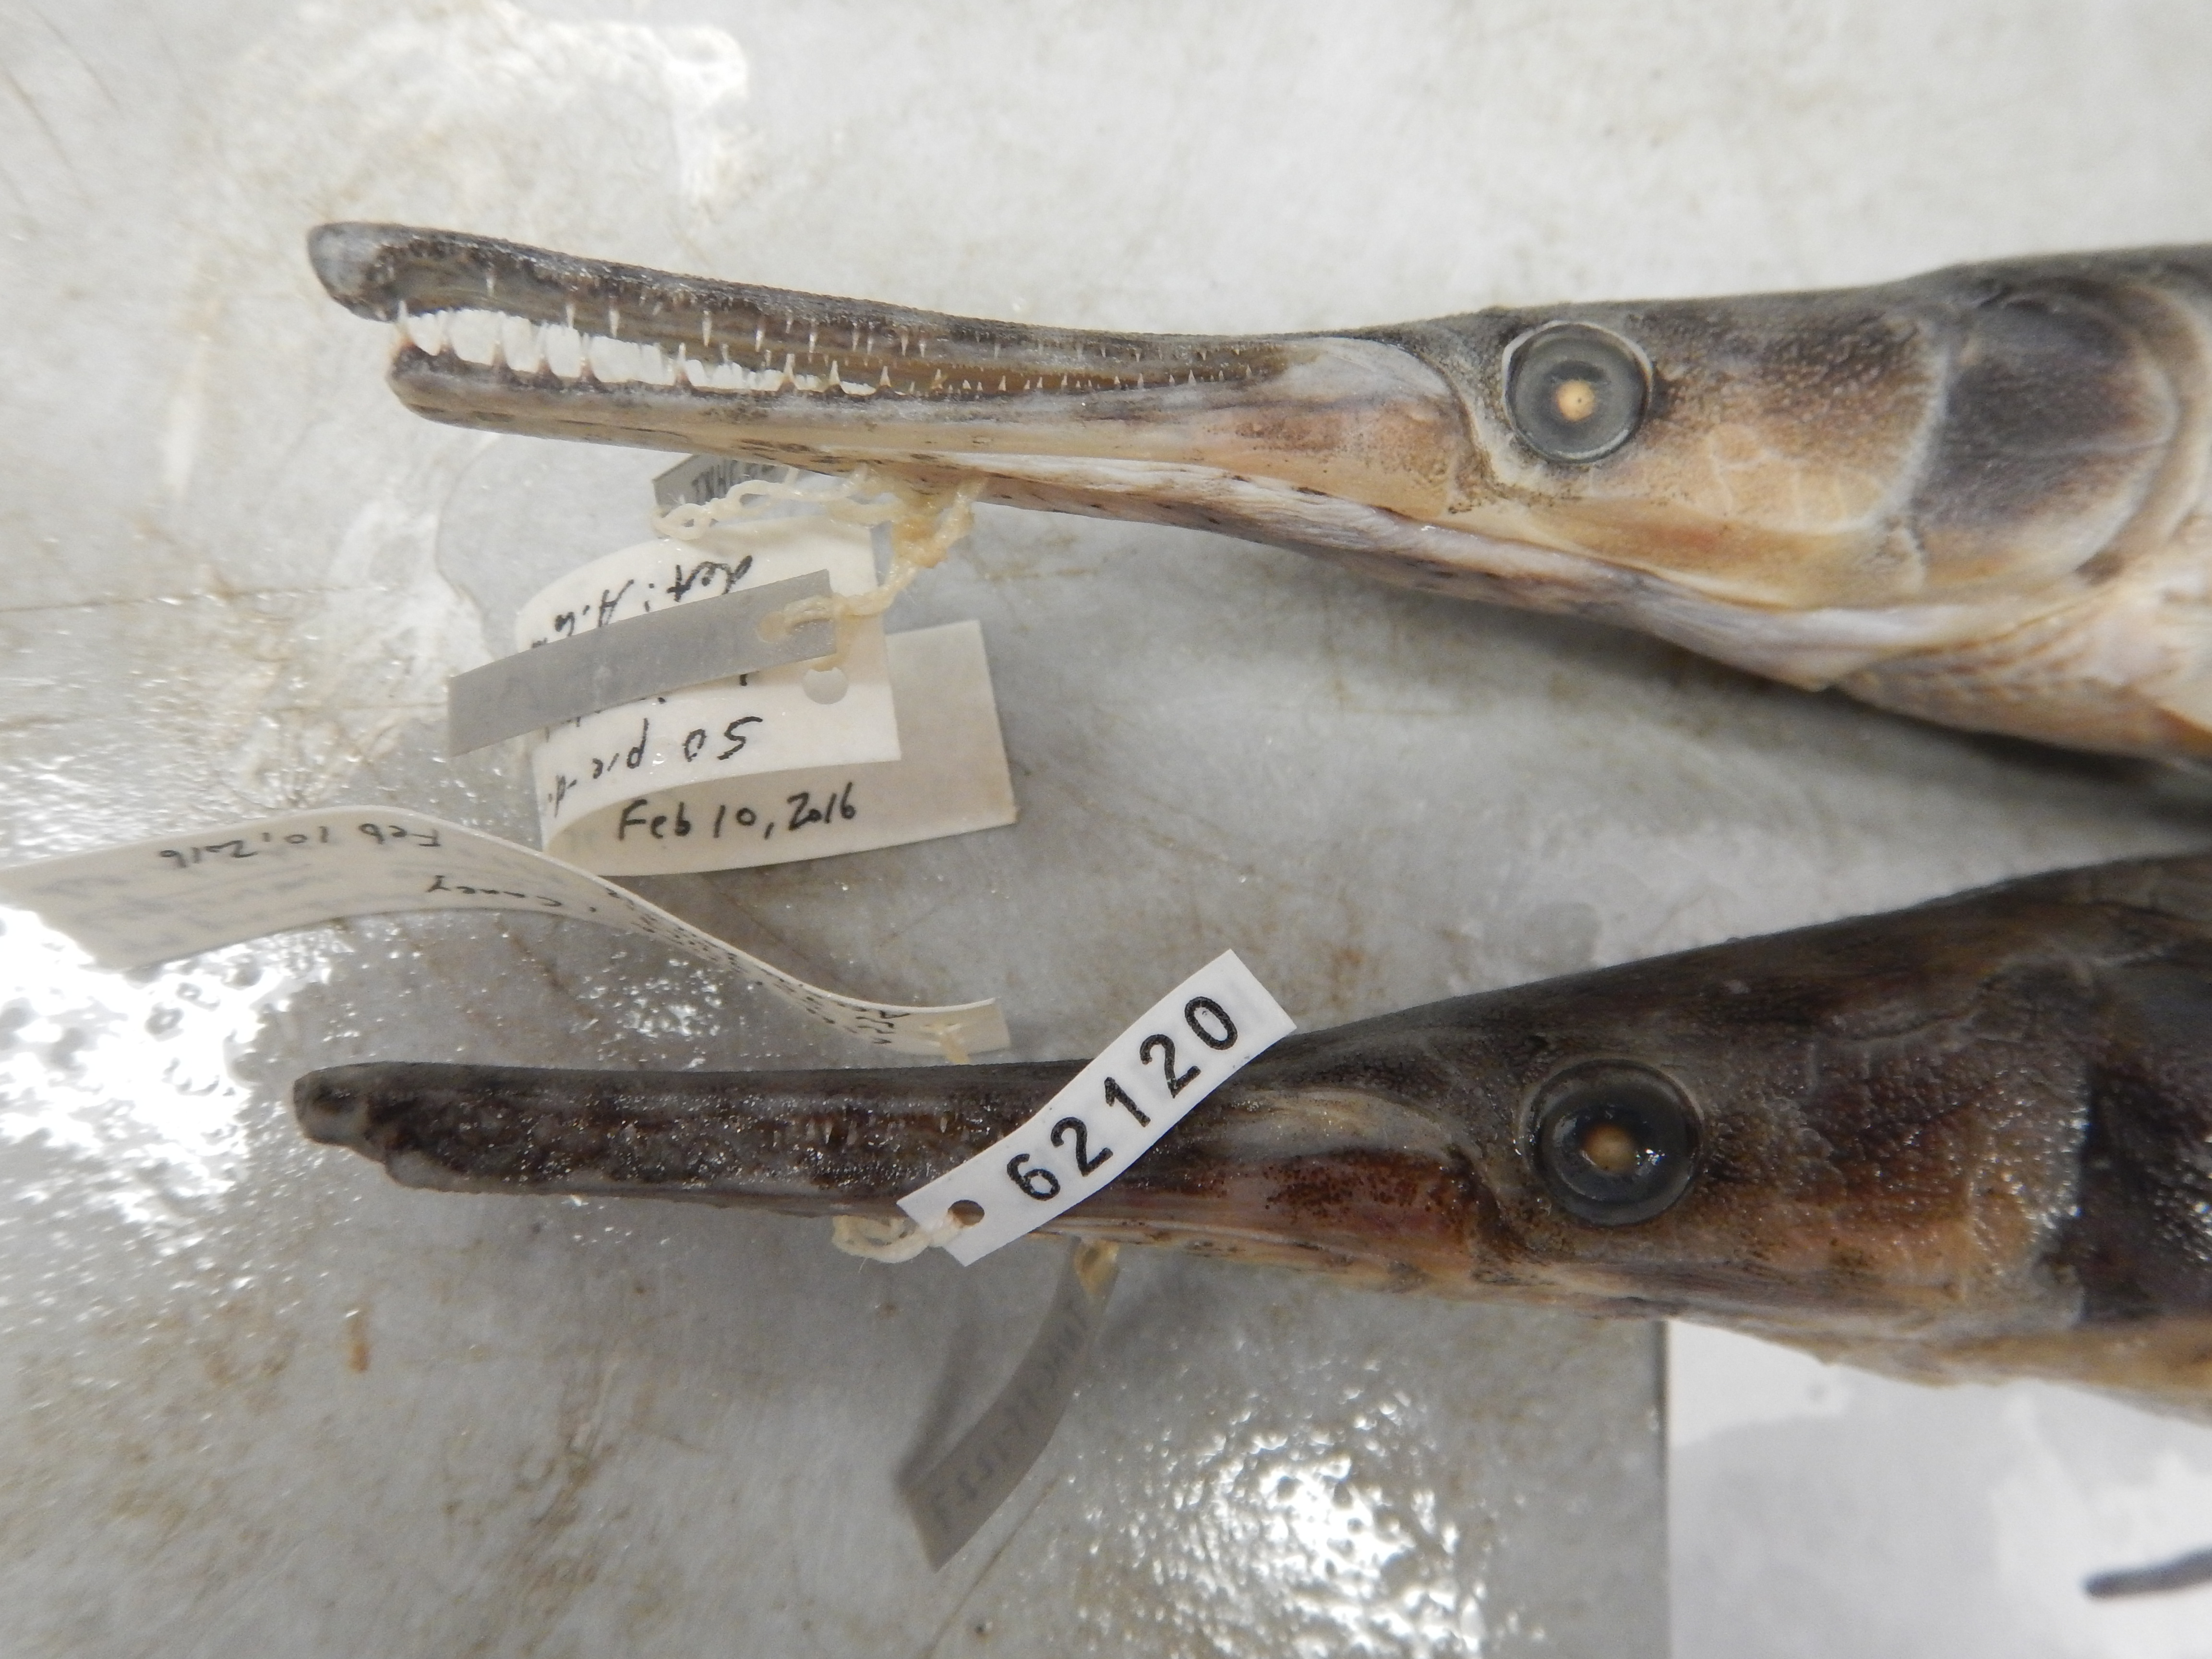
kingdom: Animalia
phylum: Chordata
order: Lepisosteiformes
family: Lepisosteidae
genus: Lepisosteus
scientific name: Lepisosteus oculatus
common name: Spotted gar
